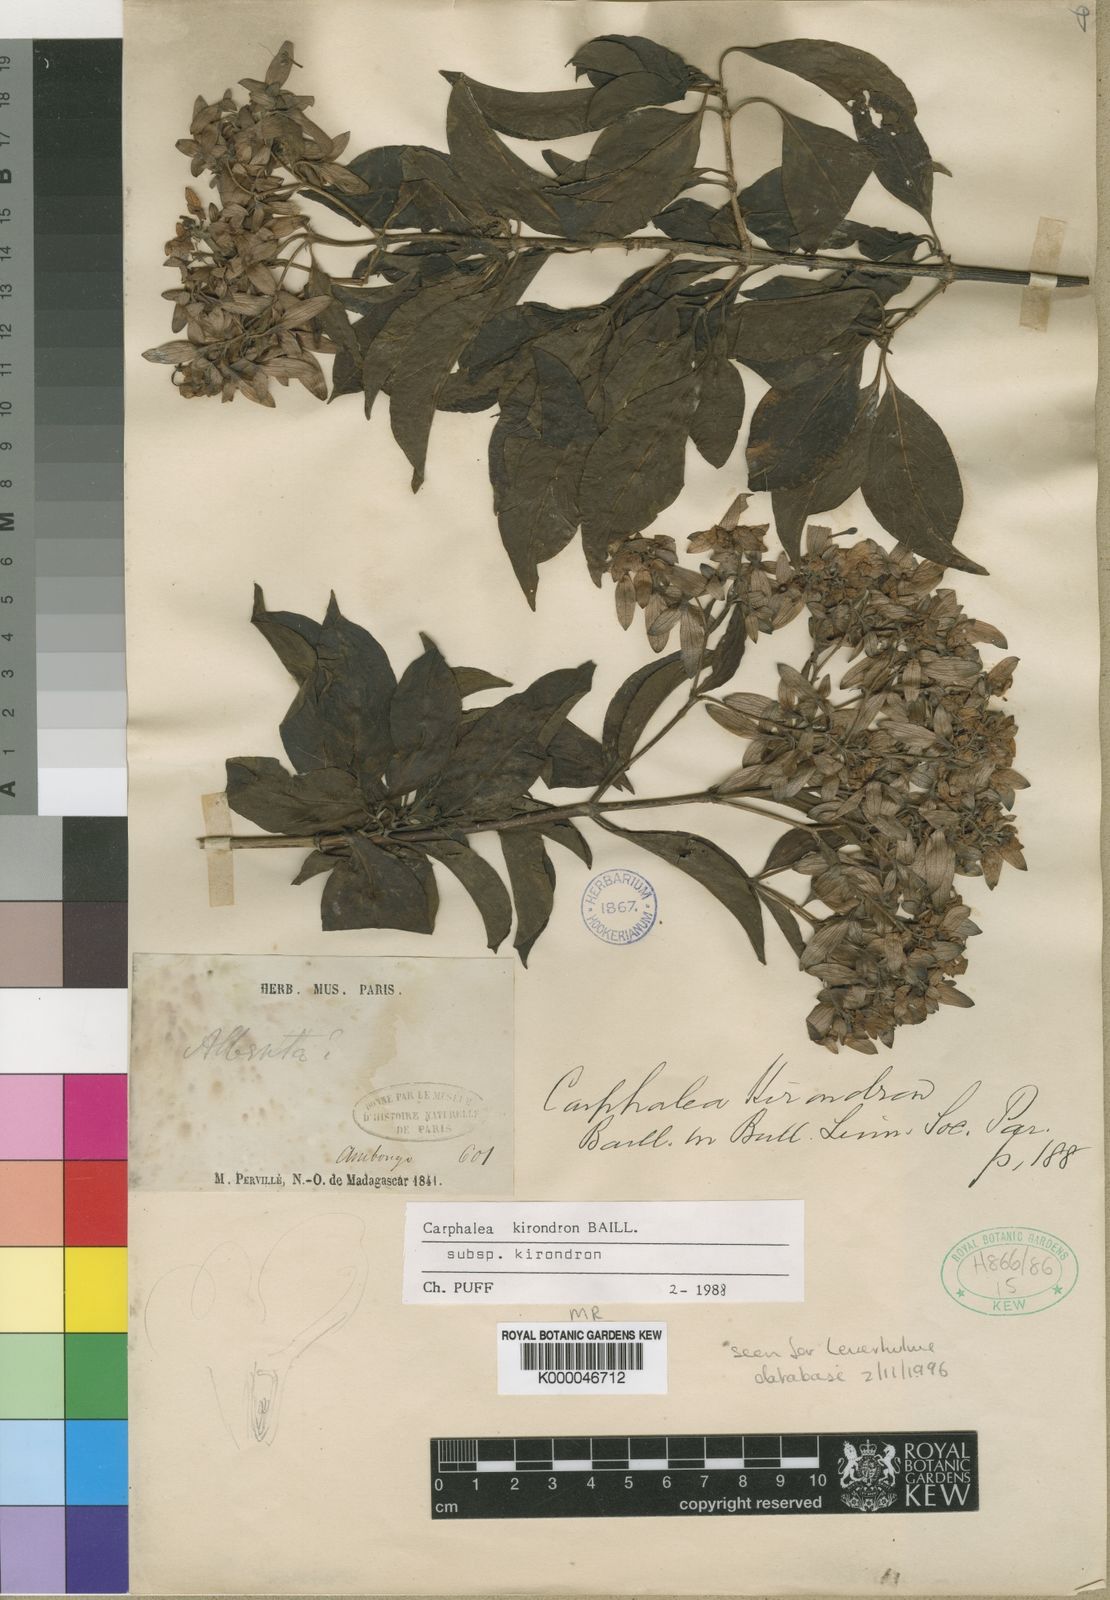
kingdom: Plantae
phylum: Tracheophyta
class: Magnoliopsida
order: Gentianales
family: Rubiaceae
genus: Paracarphalea
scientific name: Paracarphalea kirondron
